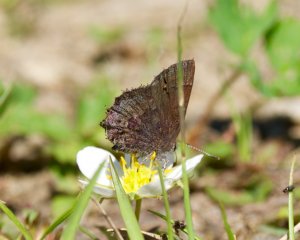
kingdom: Animalia
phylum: Arthropoda
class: Insecta
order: Lepidoptera
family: Lycaenidae
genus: Callophrys
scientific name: Callophrys polios
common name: Hoary Elfin
